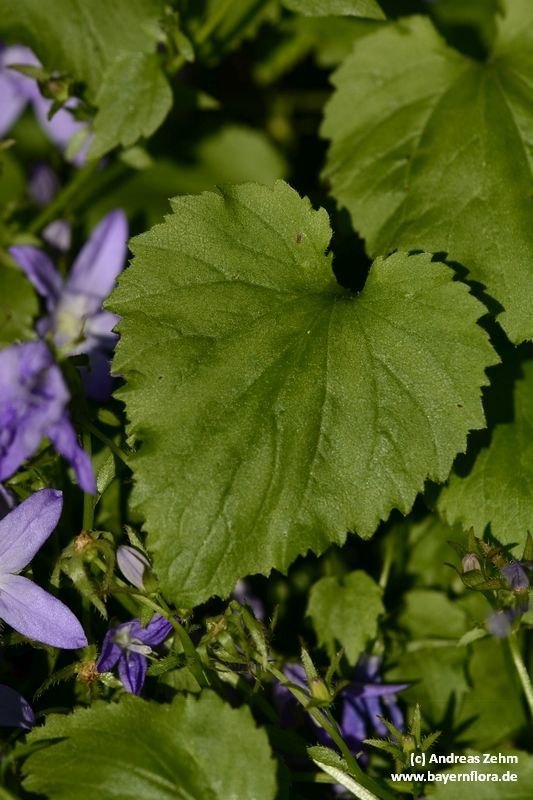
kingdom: Plantae
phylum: Tracheophyta
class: Magnoliopsida
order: Asterales
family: Campanulaceae
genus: Campanula
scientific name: Campanula poscharskyana
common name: Trailing bellflower
